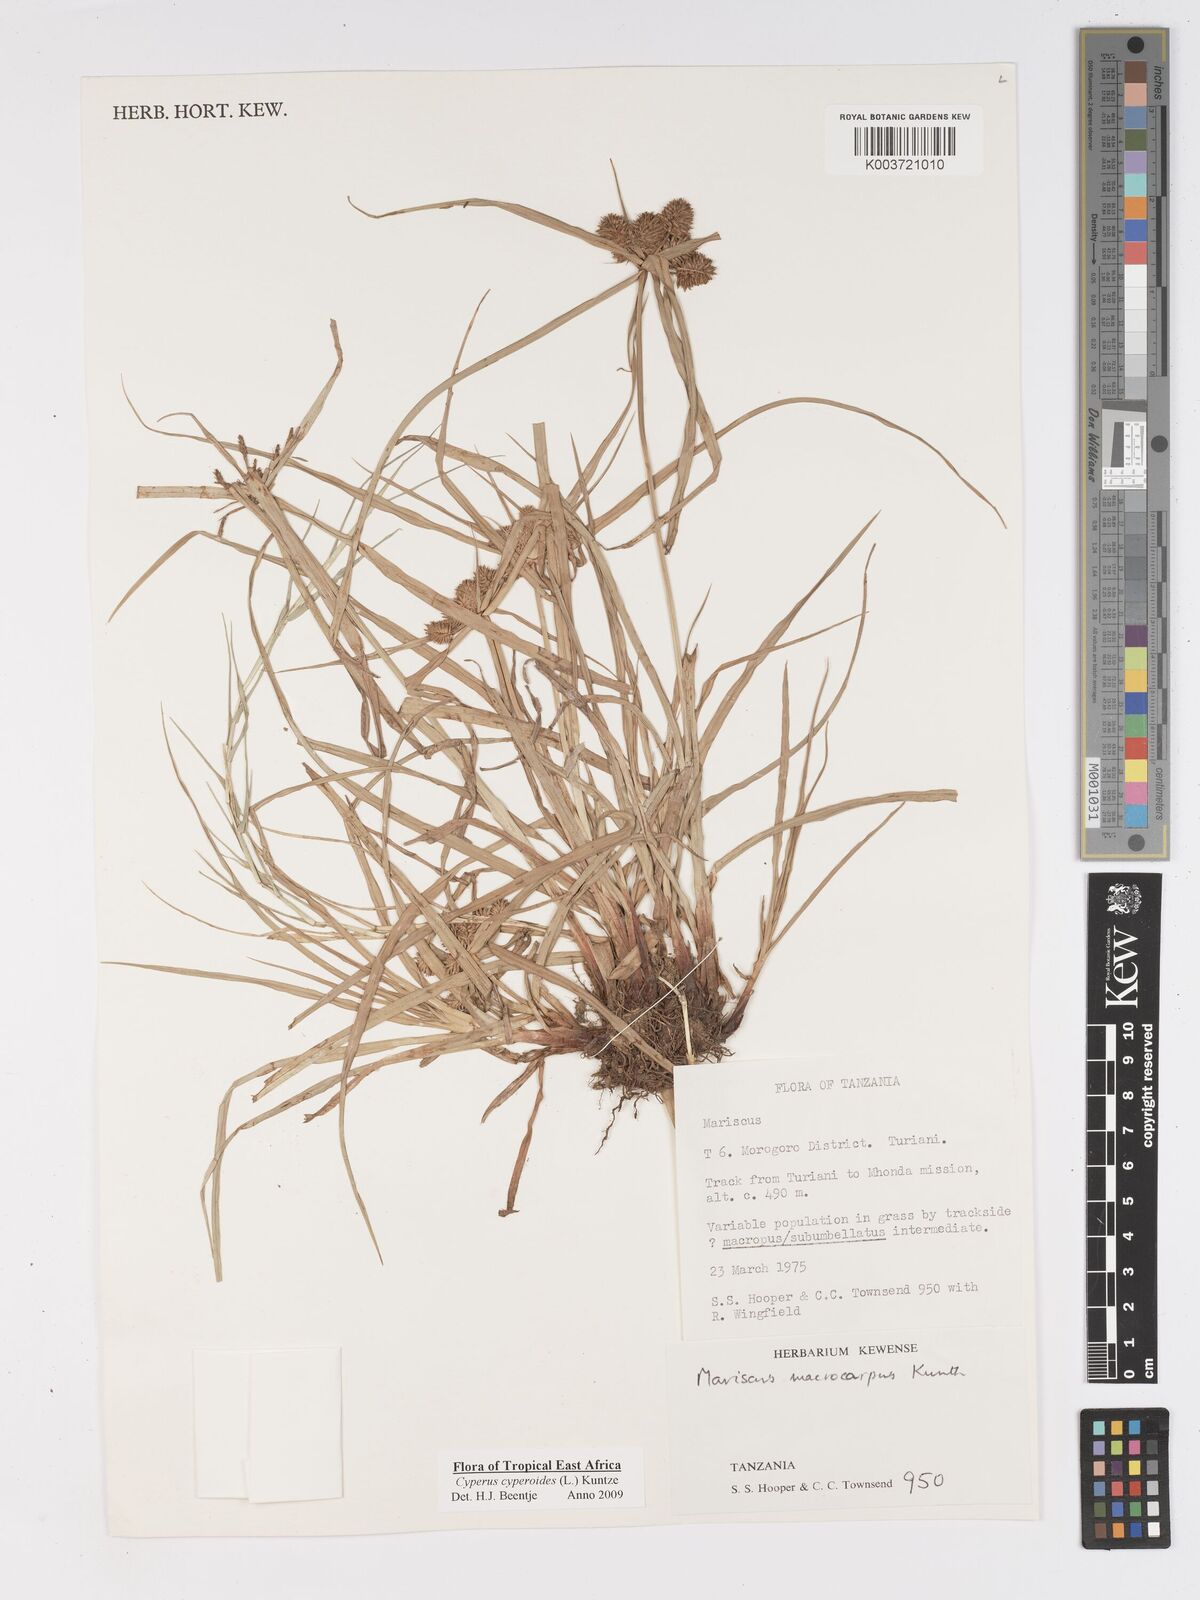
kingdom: Plantae
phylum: Tracheophyta
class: Liliopsida
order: Poales
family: Cyperaceae
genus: Cyperus
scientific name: Cyperus cyperoides
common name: Pacific island flat sedge
